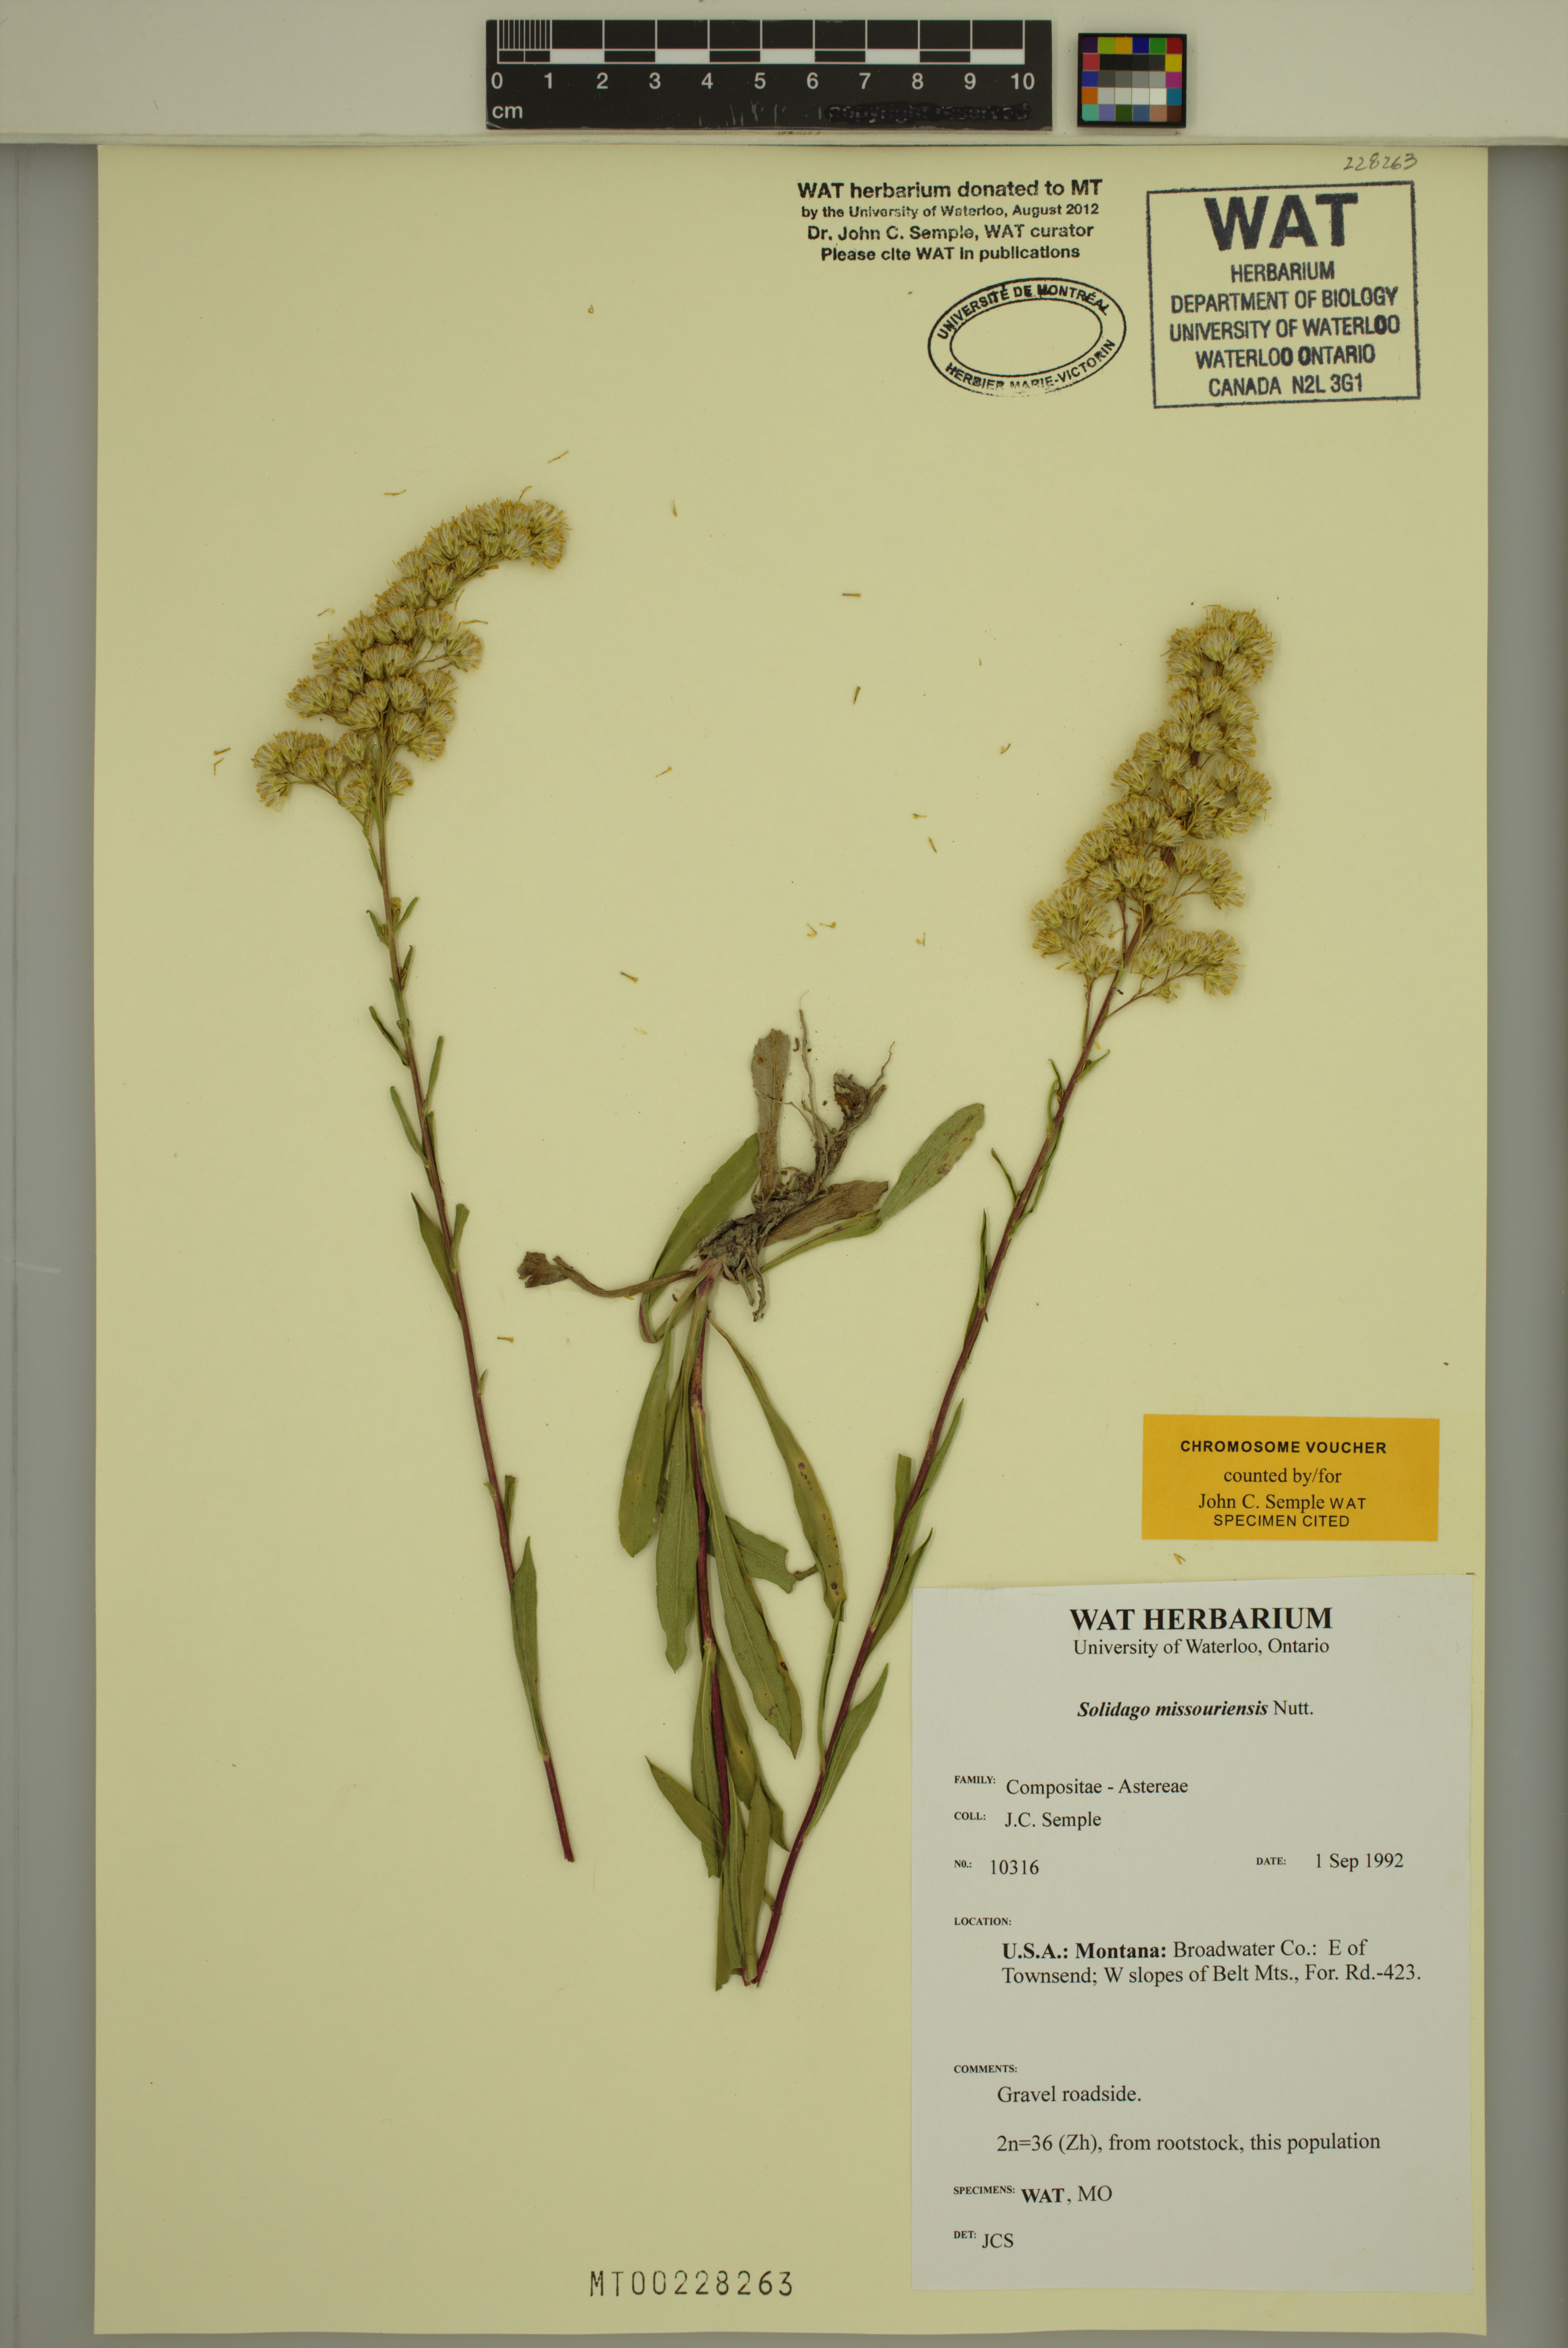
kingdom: Plantae
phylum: Tracheophyta
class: Magnoliopsida
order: Asterales
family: Asteraceae
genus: Solidago
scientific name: Solidago missouriensis
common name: Prairie goldenrod
